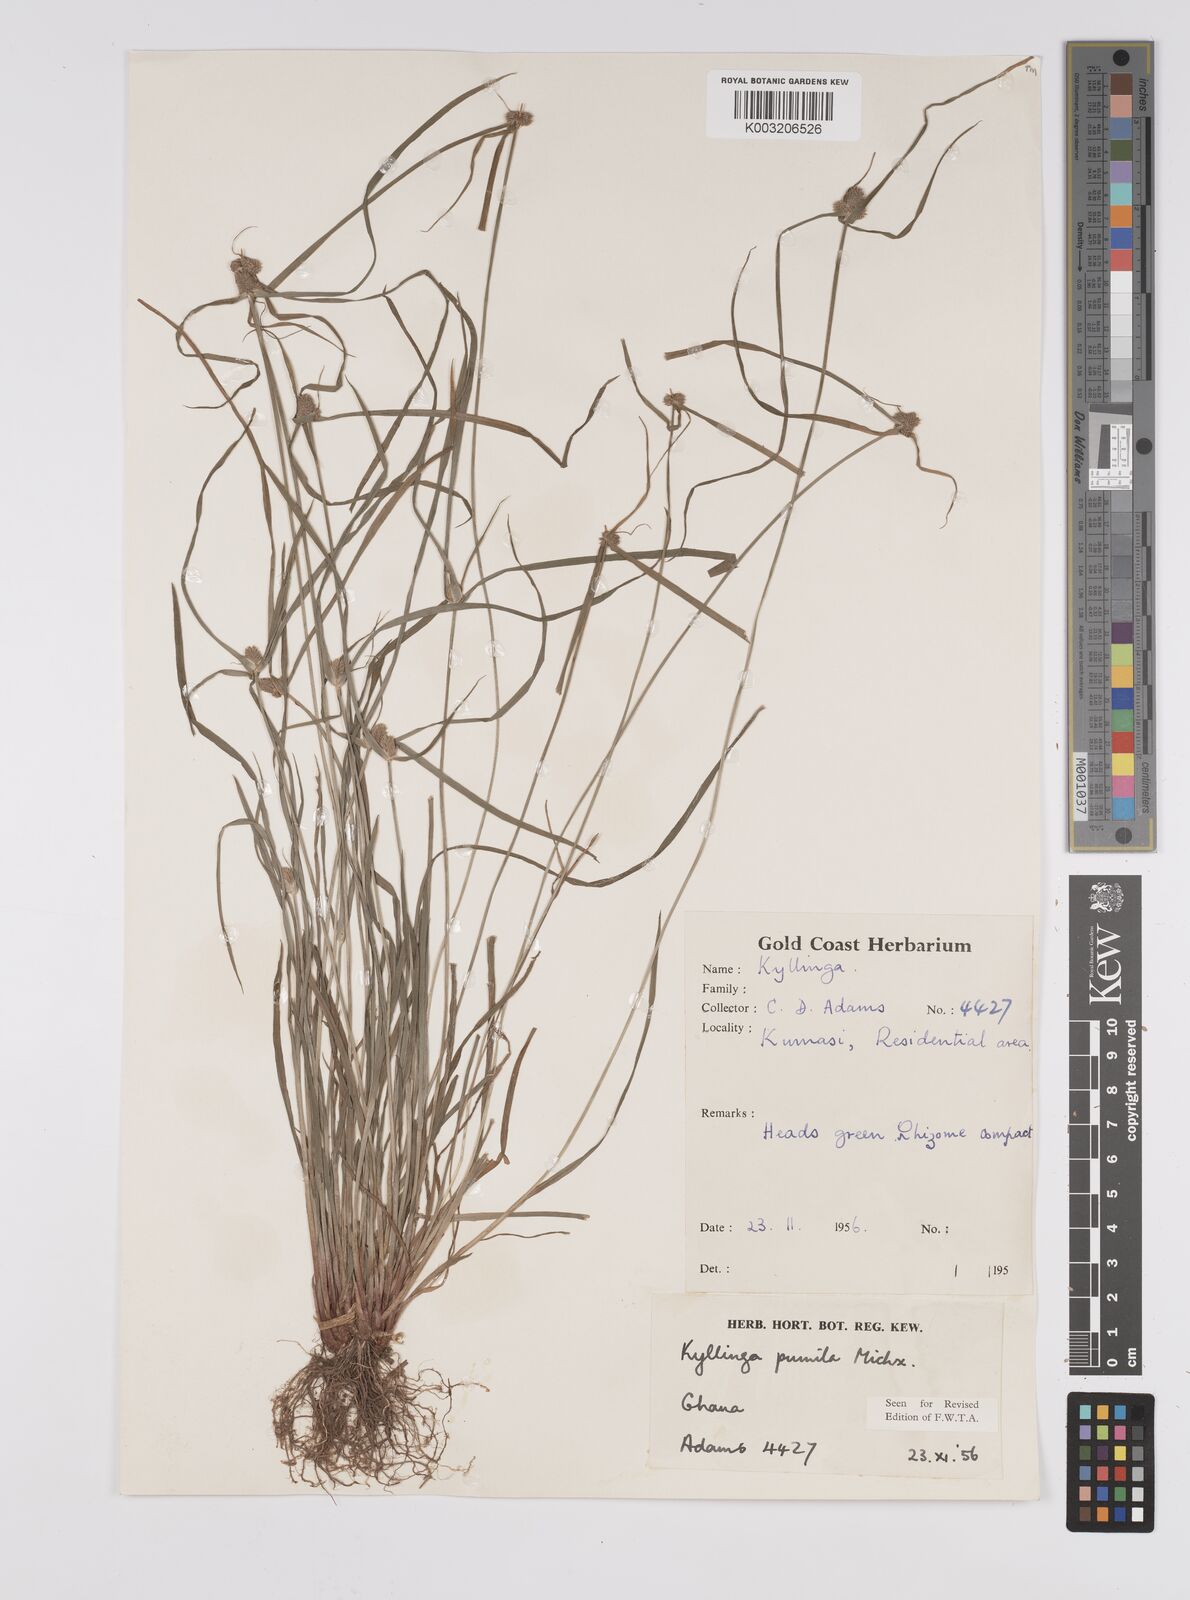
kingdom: Plantae
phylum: Tracheophyta
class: Liliopsida
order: Poales
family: Cyperaceae
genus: Cyperus
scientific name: Cyperus
